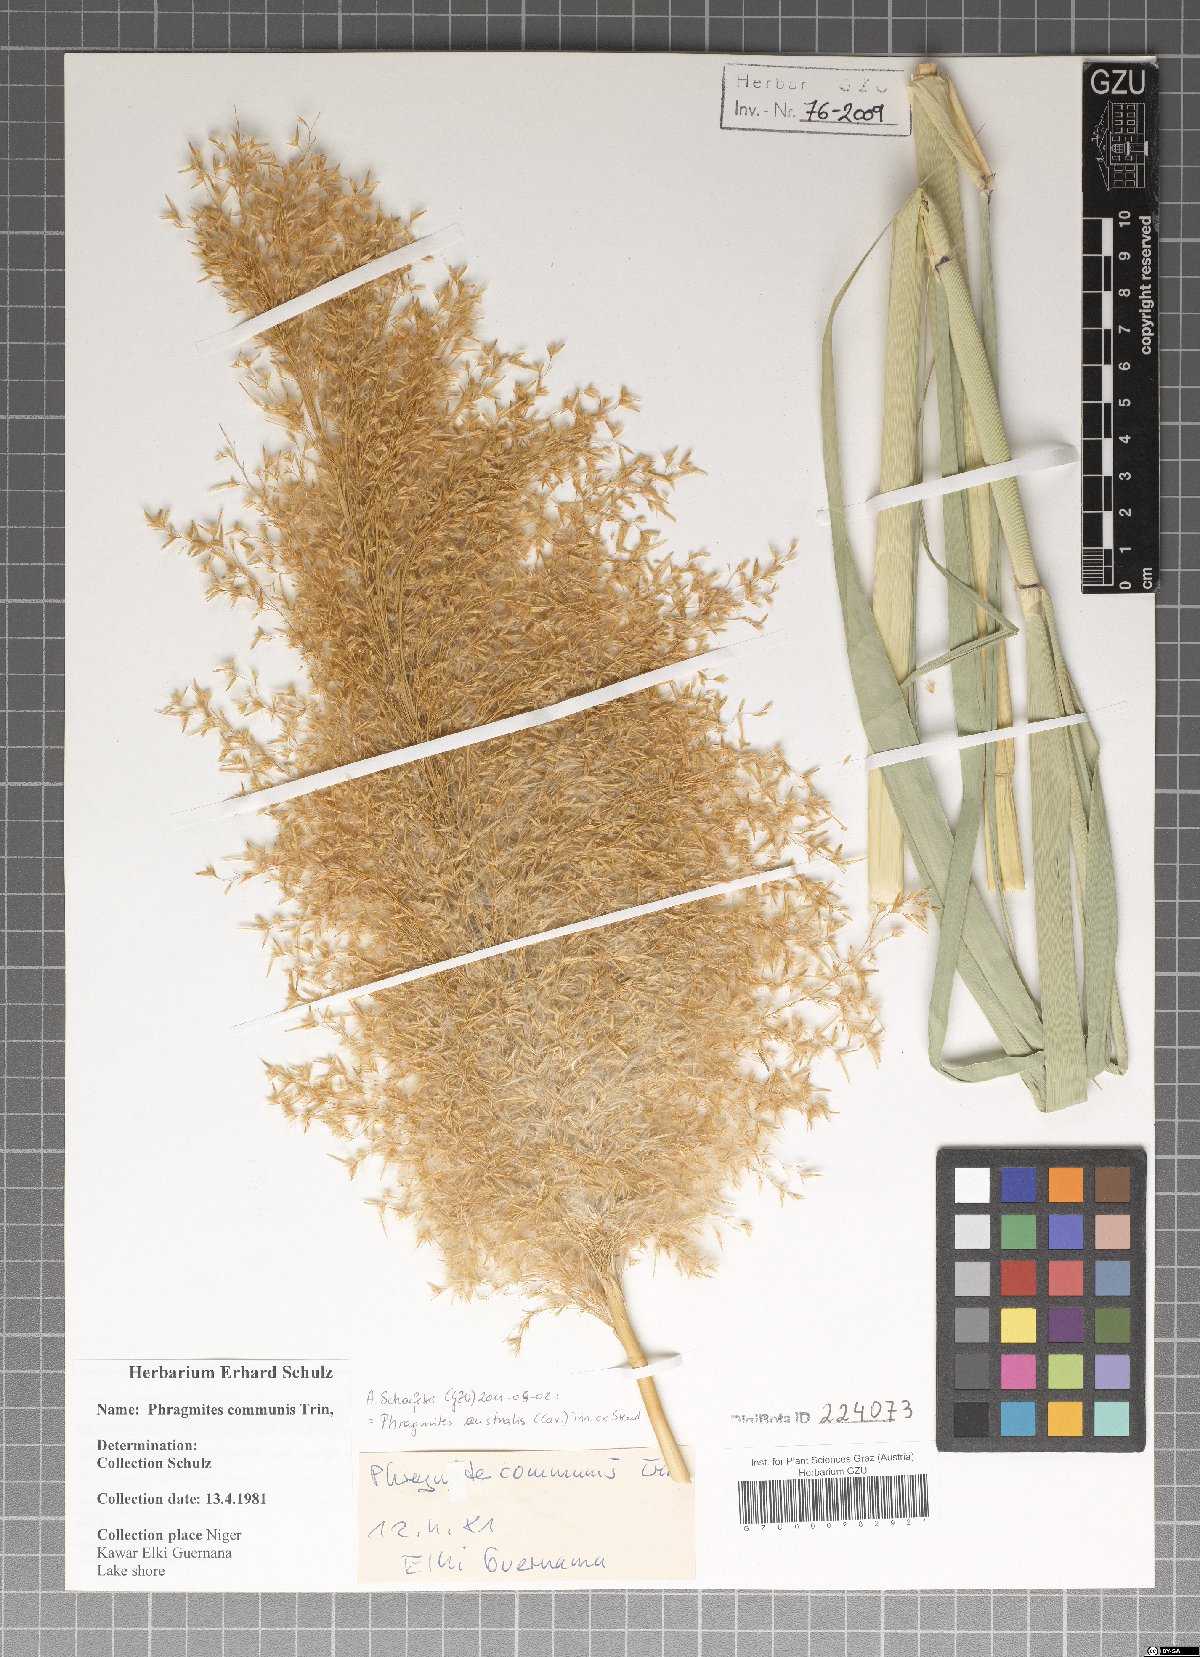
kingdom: Plantae
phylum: Tracheophyta
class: Liliopsida
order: Poales
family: Poaceae
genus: Phragmites
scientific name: Phragmites australis
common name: Common reed
